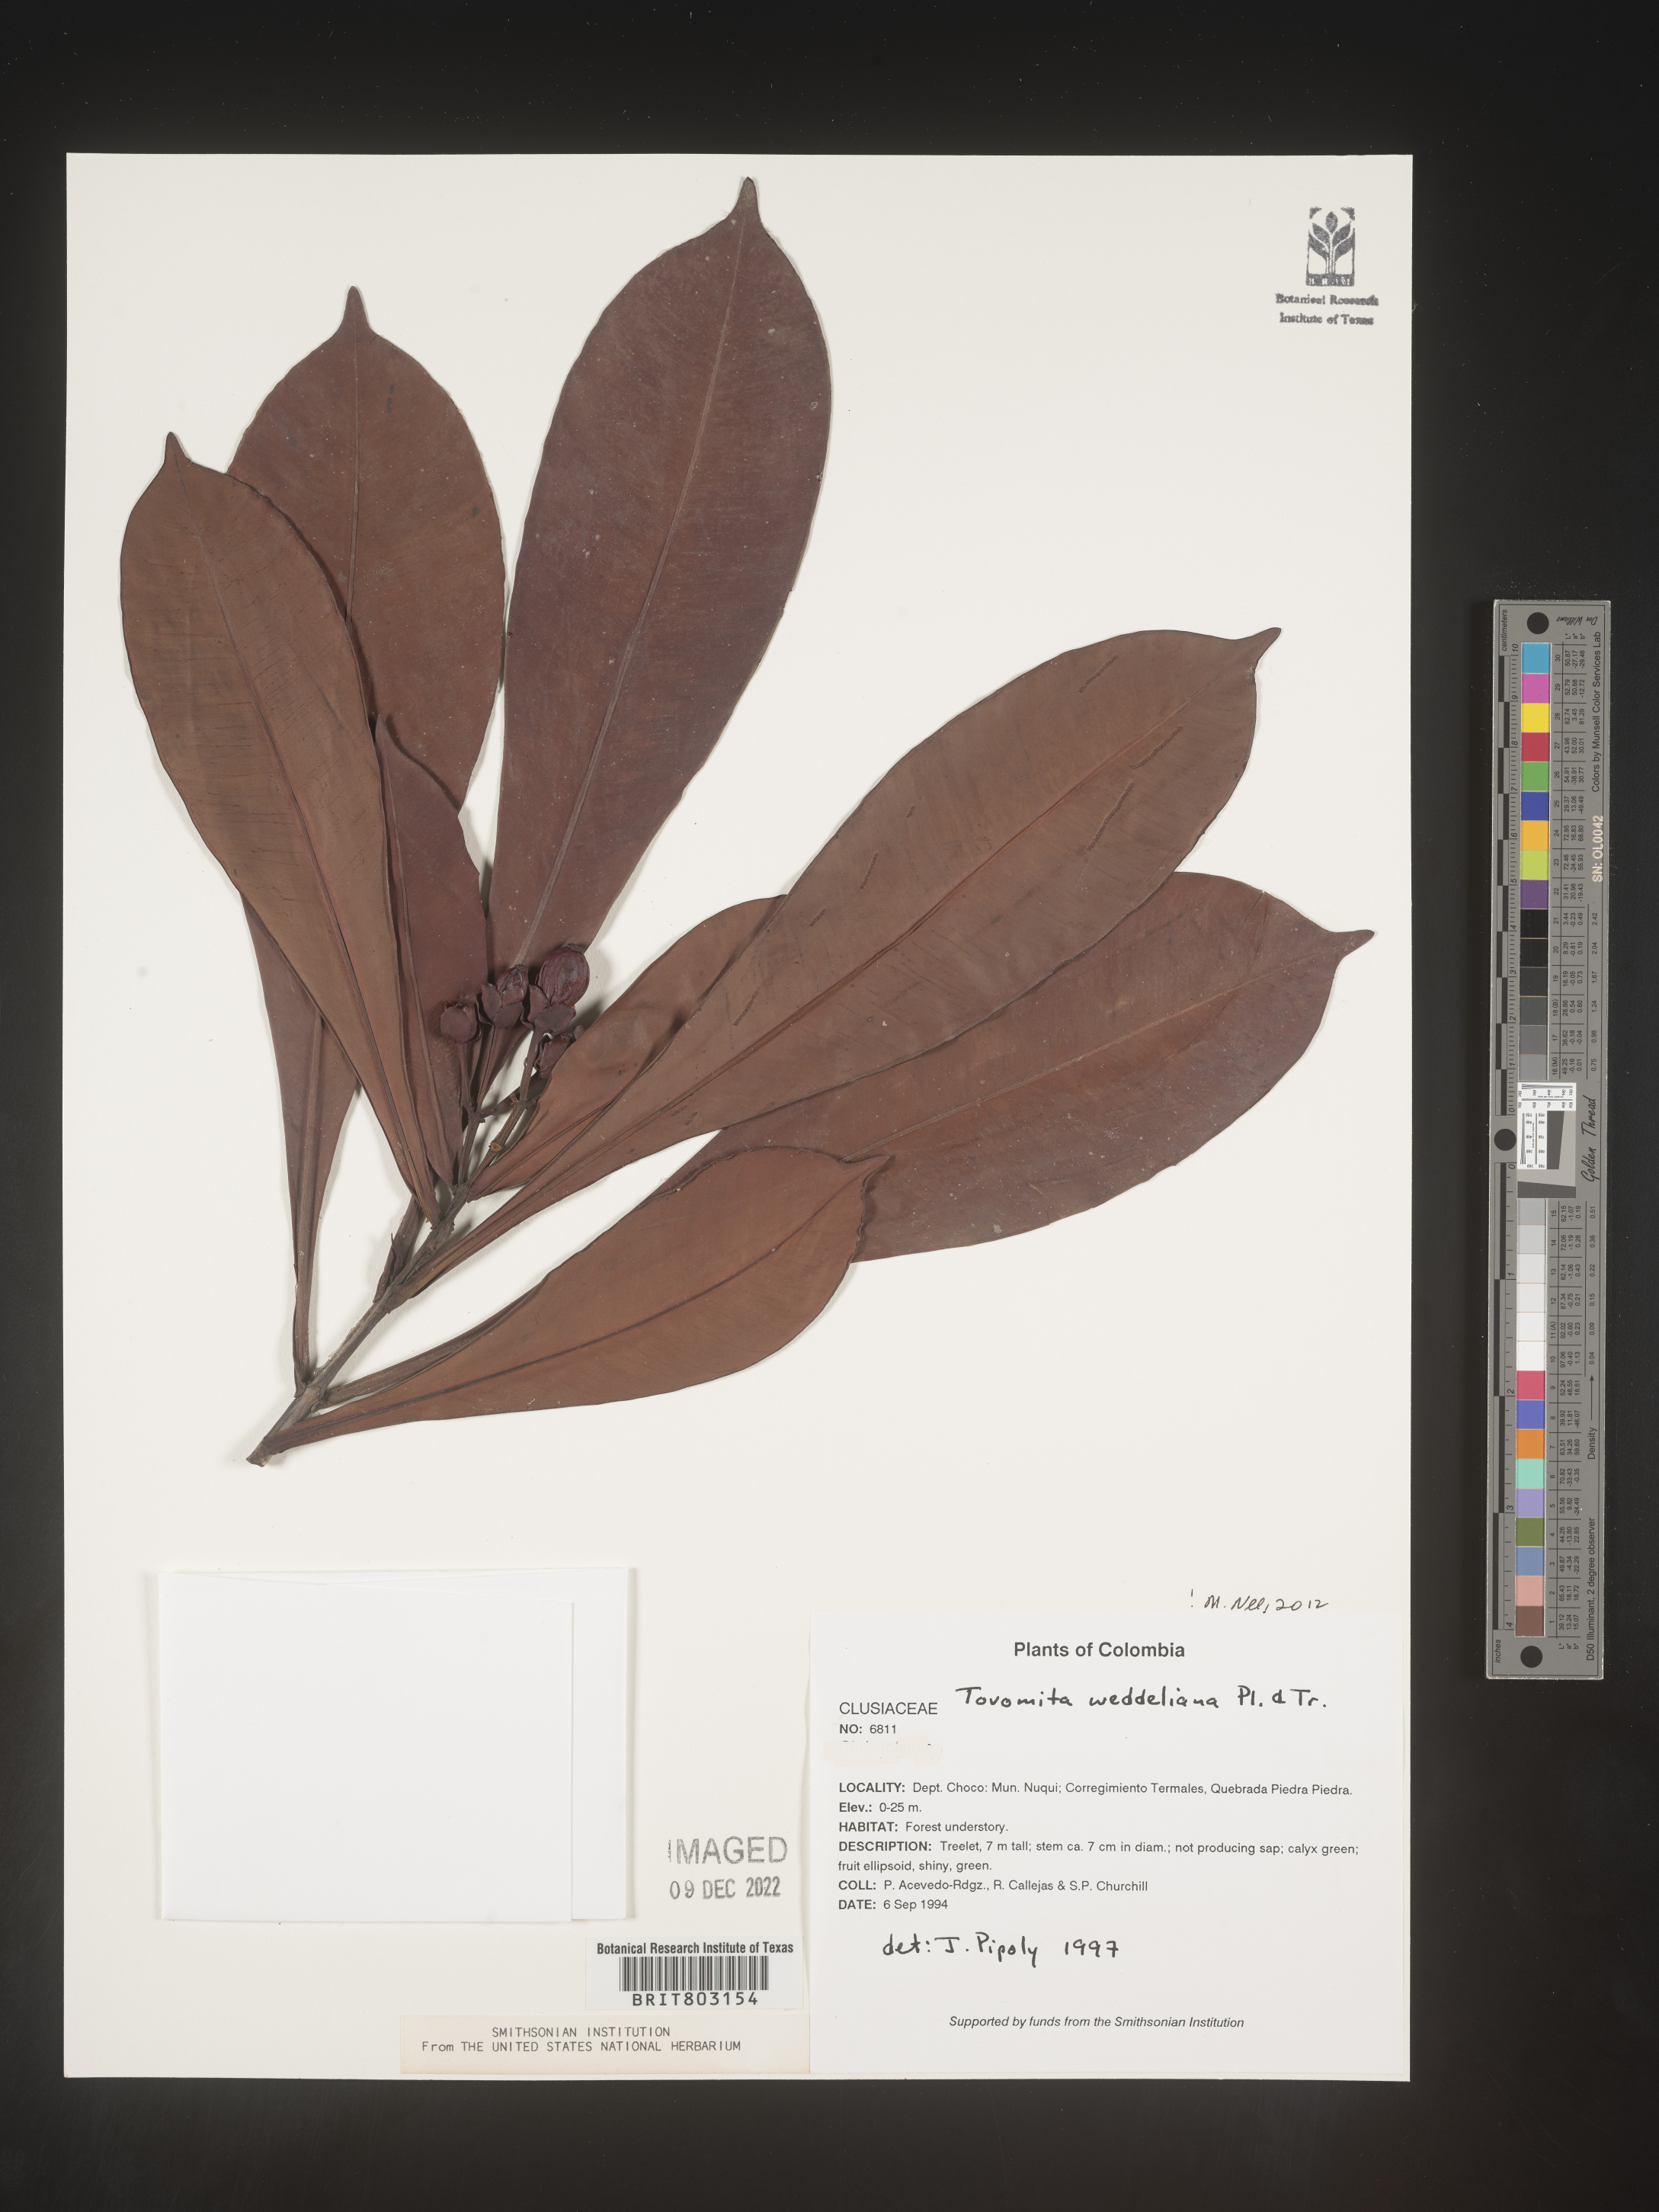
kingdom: Plantae
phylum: Tracheophyta
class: Magnoliopsida
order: Malpighiales
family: Clusiaceae
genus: Arawakia
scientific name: Arawakia weddelliana
